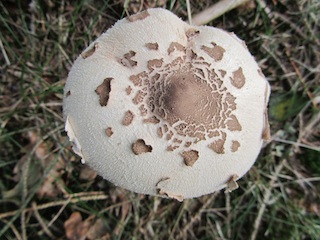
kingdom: Fungi
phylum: Basidiomycota
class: Agaricomycetes
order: Agaricales
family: Agaricaceae
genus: Macrolepiota
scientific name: Macrolepiota mastoidea
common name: puklet kæmpeparasolhat
